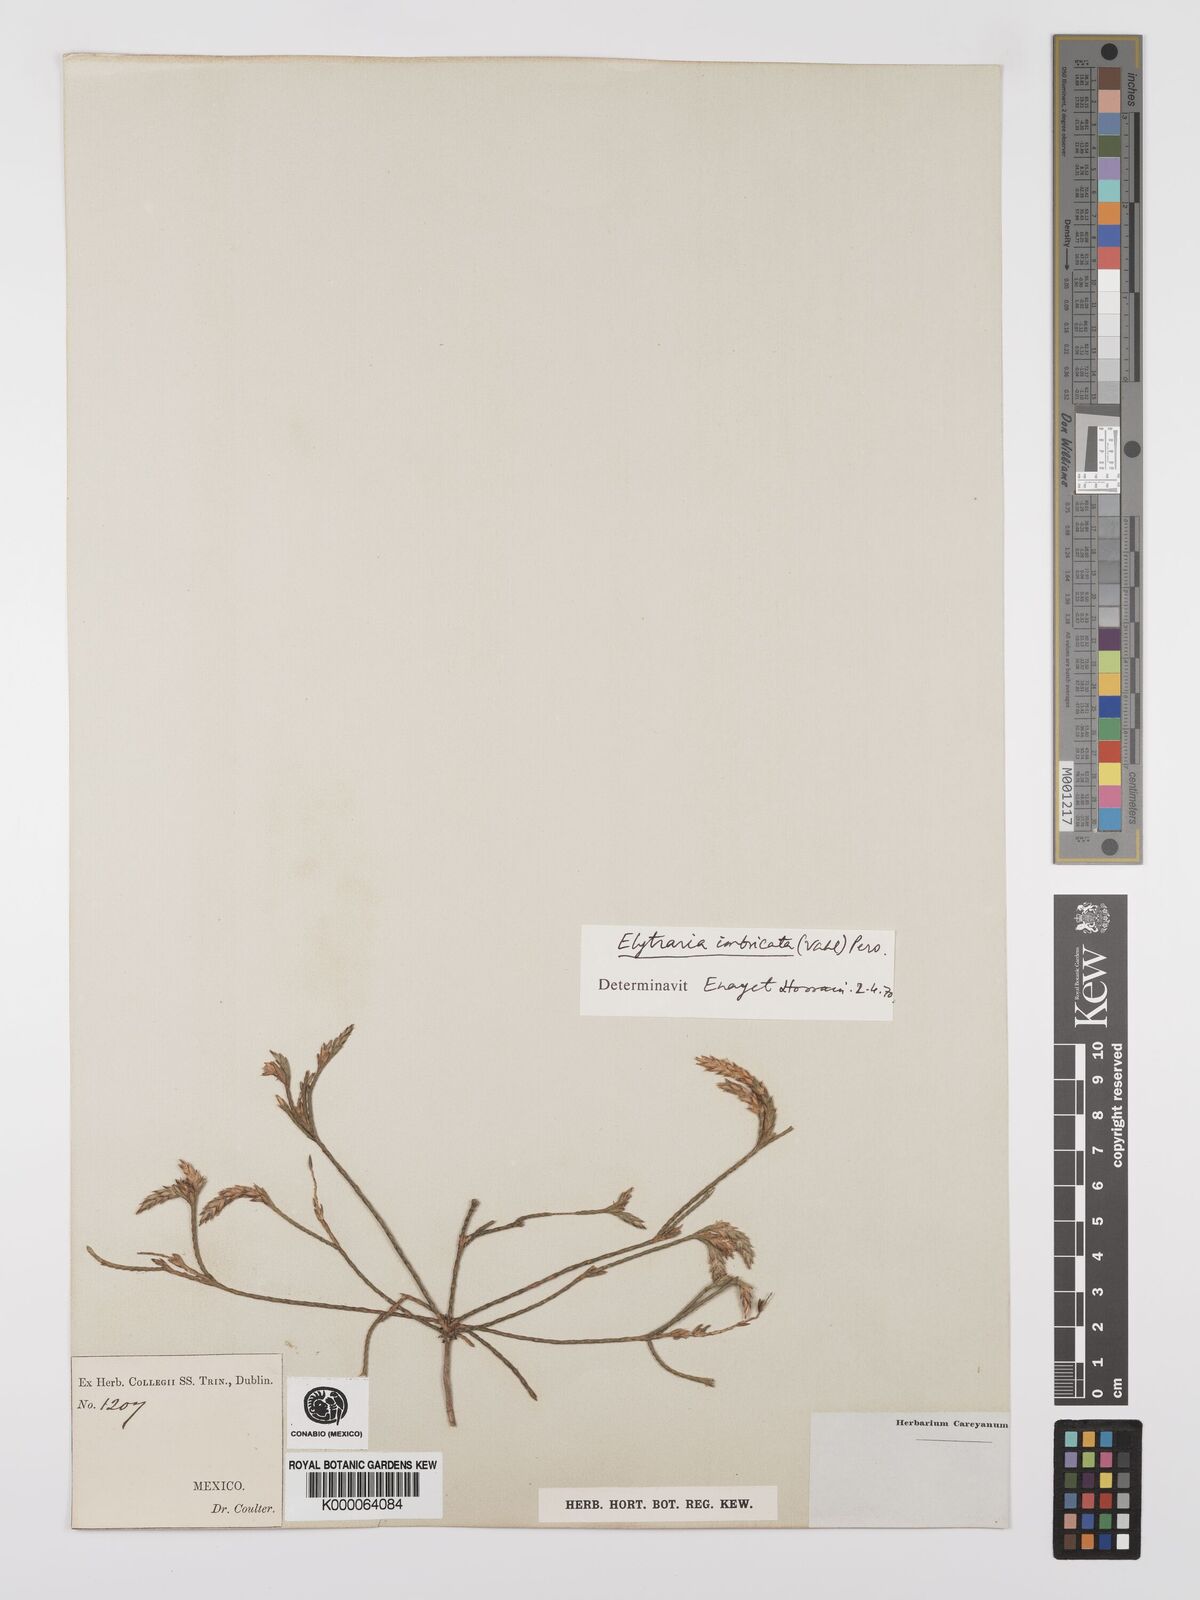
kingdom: Plantae
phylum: Tracheophyta
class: Magnoliopsida
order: Lamiales
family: Acanthaceae
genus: Elytraria
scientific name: Elytraria imbricata
